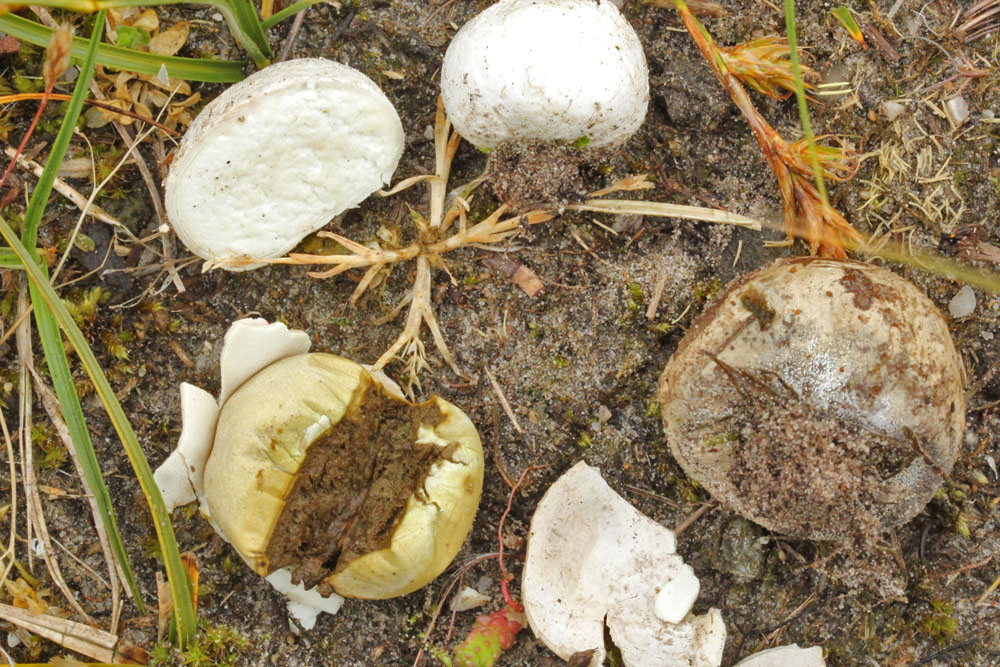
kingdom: Fungi
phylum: Basidiomycota
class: Agaricomycetes
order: Agaricales
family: Lycoperdaceae
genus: Bovista
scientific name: Bovista plumbea
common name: blygrå bovist
